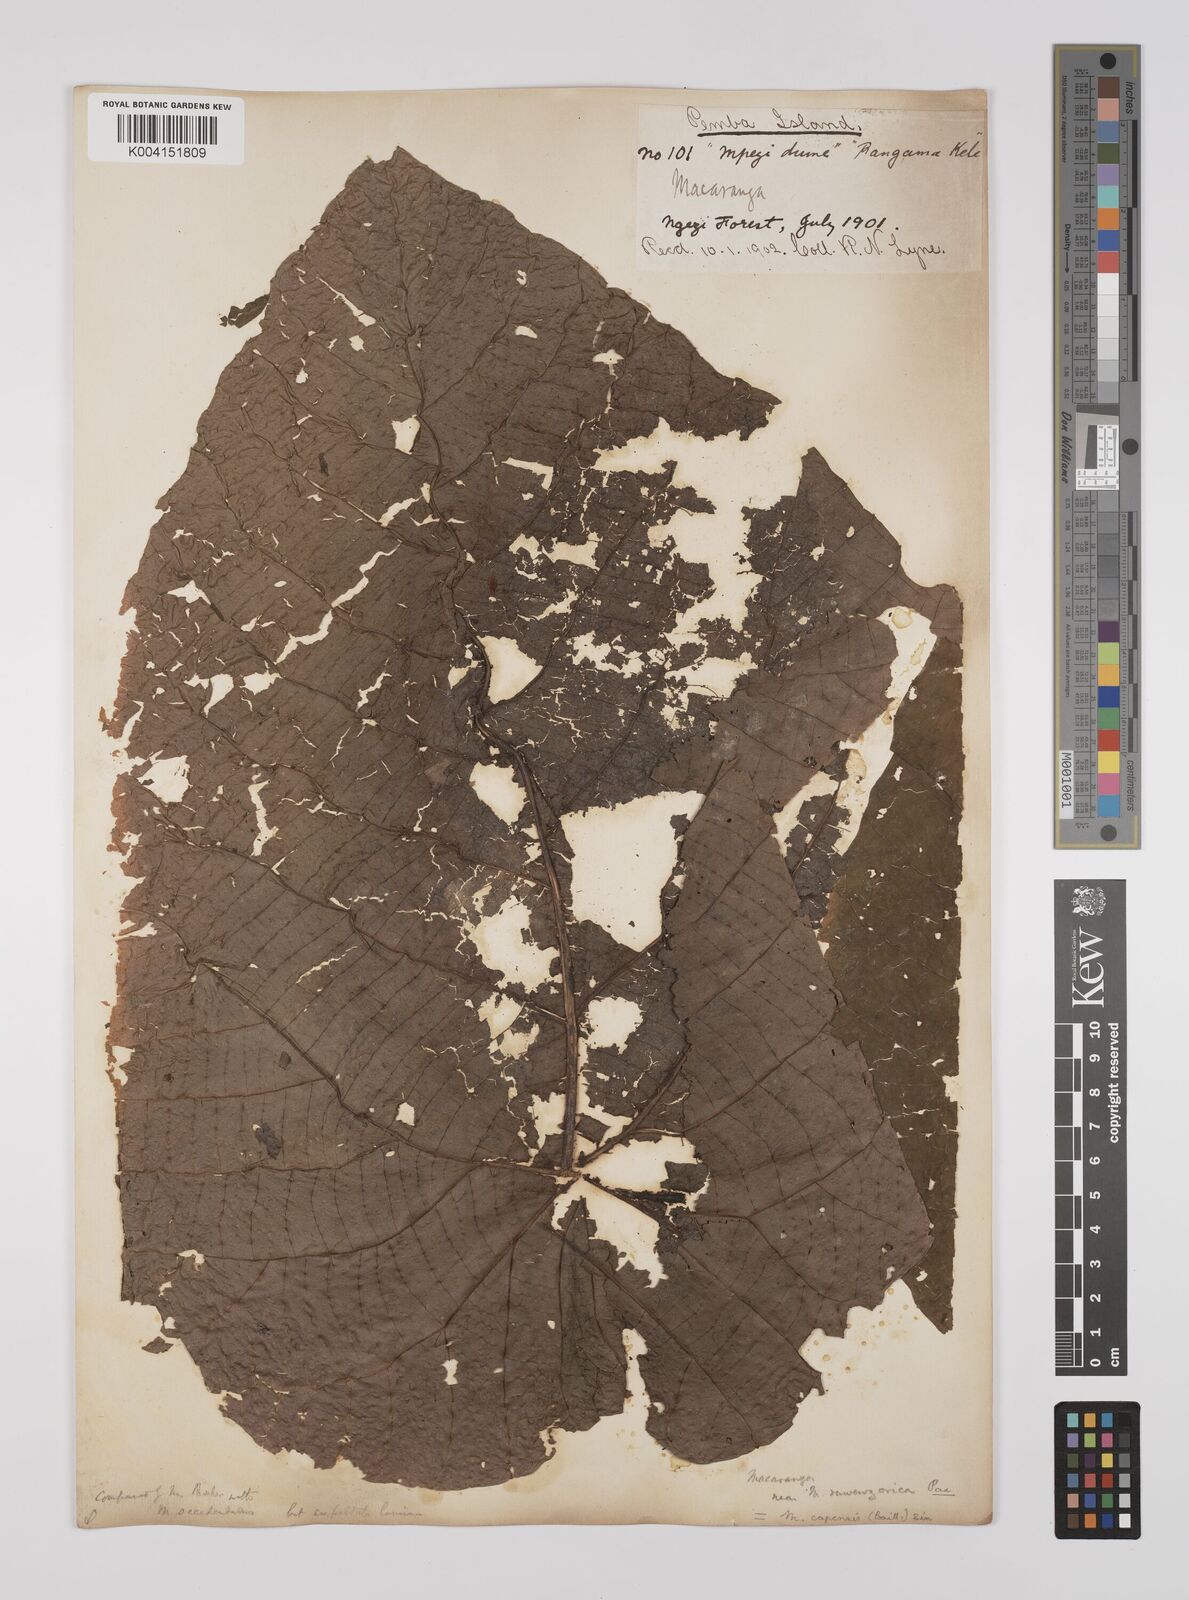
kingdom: Plantae
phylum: Tracheophyta
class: Magnoliopsida
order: Malpighiales
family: Euphorbiaceae
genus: Macaranga
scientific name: Macaranga capensis
